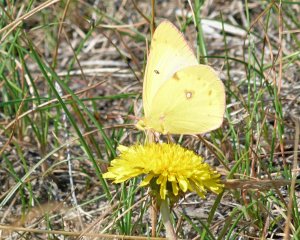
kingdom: Animalia
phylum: Arthropoda
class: Insecta
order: Lepidoptera
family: Pieridae
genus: Colias
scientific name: Colias philodice
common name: Clouded Sulphur
